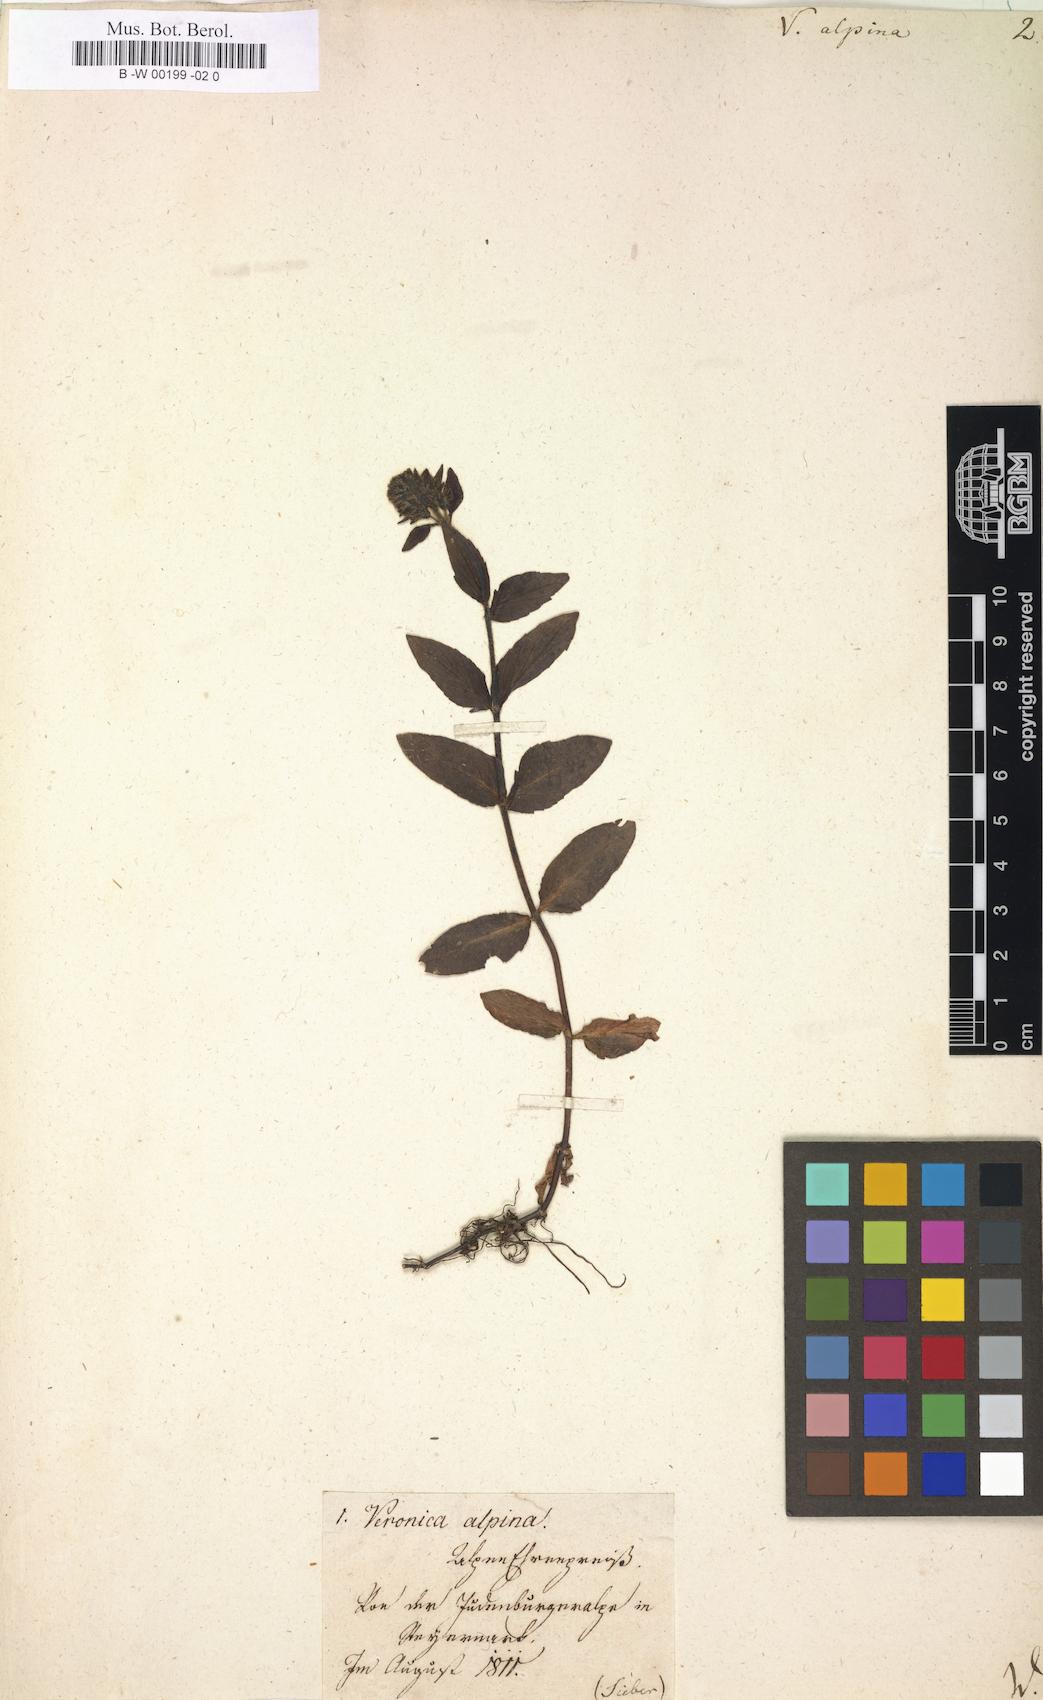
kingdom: Plantae
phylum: Tracheophyta
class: Magnoliopsida
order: Lamiales
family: Plantaginaceae
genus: Veronica
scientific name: Veronica alpina
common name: Alpine speedwell
